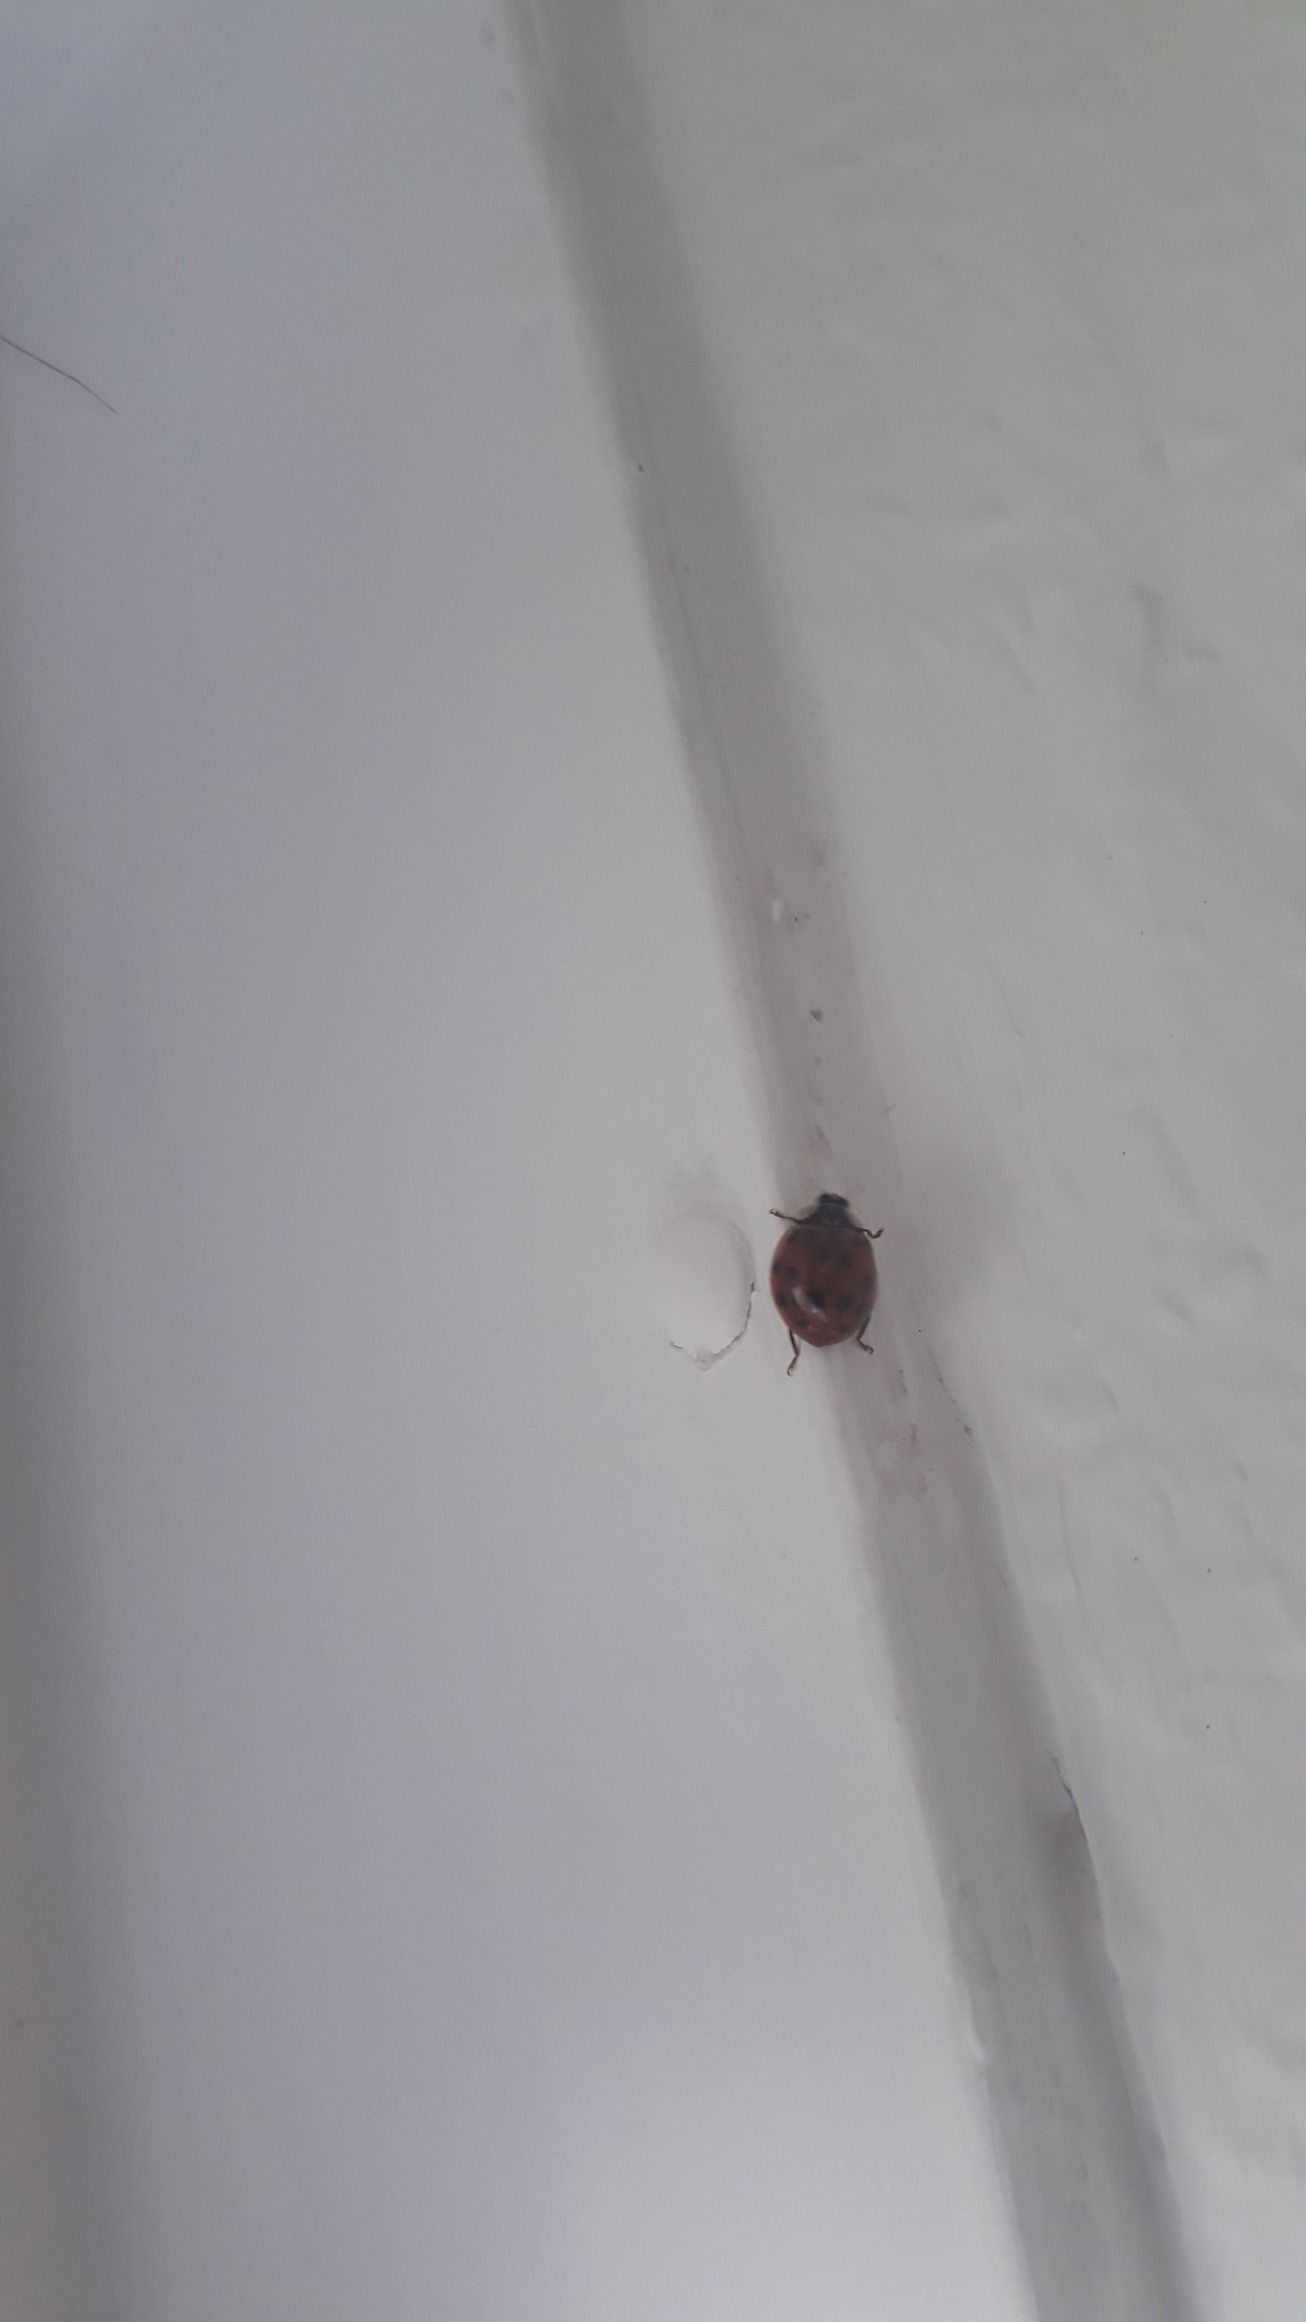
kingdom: Animalia
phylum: Arthropoda
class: Insecta
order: Coleoptera
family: Coccinellidae
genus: Harmonia
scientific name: Harmonia axyridis
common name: Harlekinmariehøne
